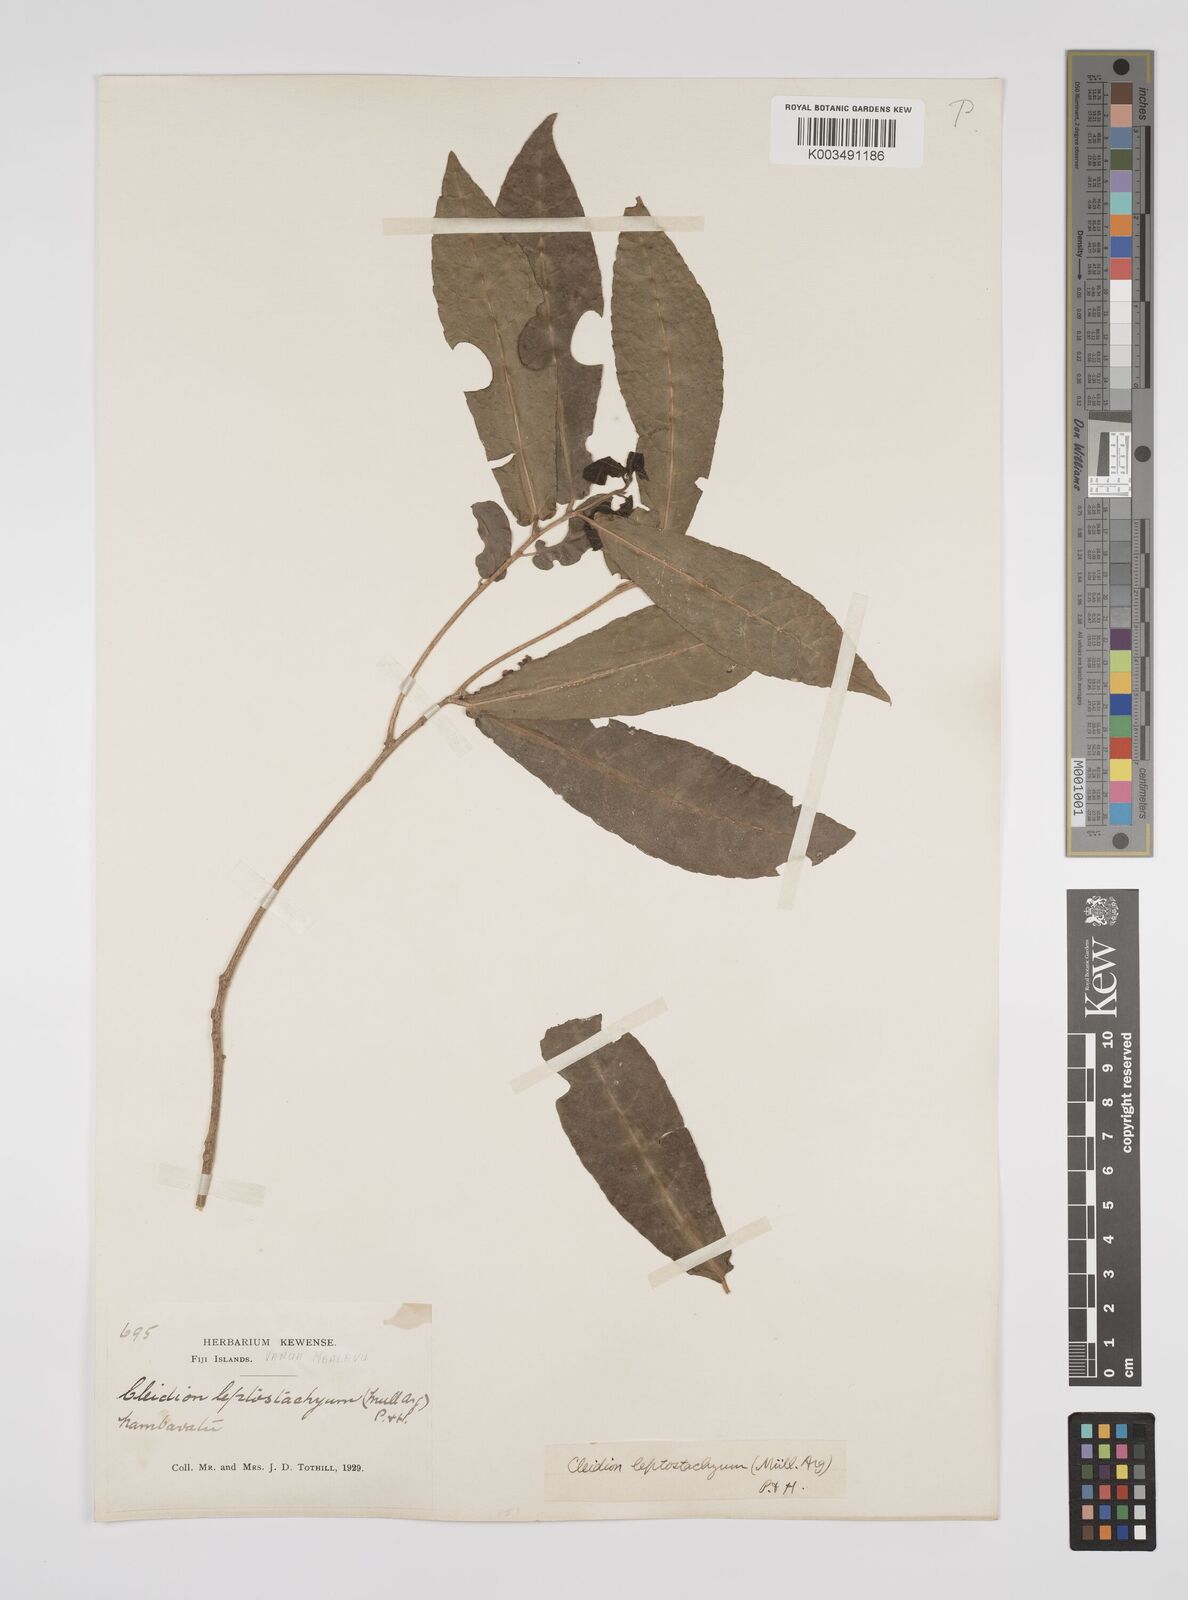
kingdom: Plantae
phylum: Tracheophyta
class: Magnoliopsida
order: Malpighiales
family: Euphorbiaceae
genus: Cleidion
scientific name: Cleidion leptostachyum
